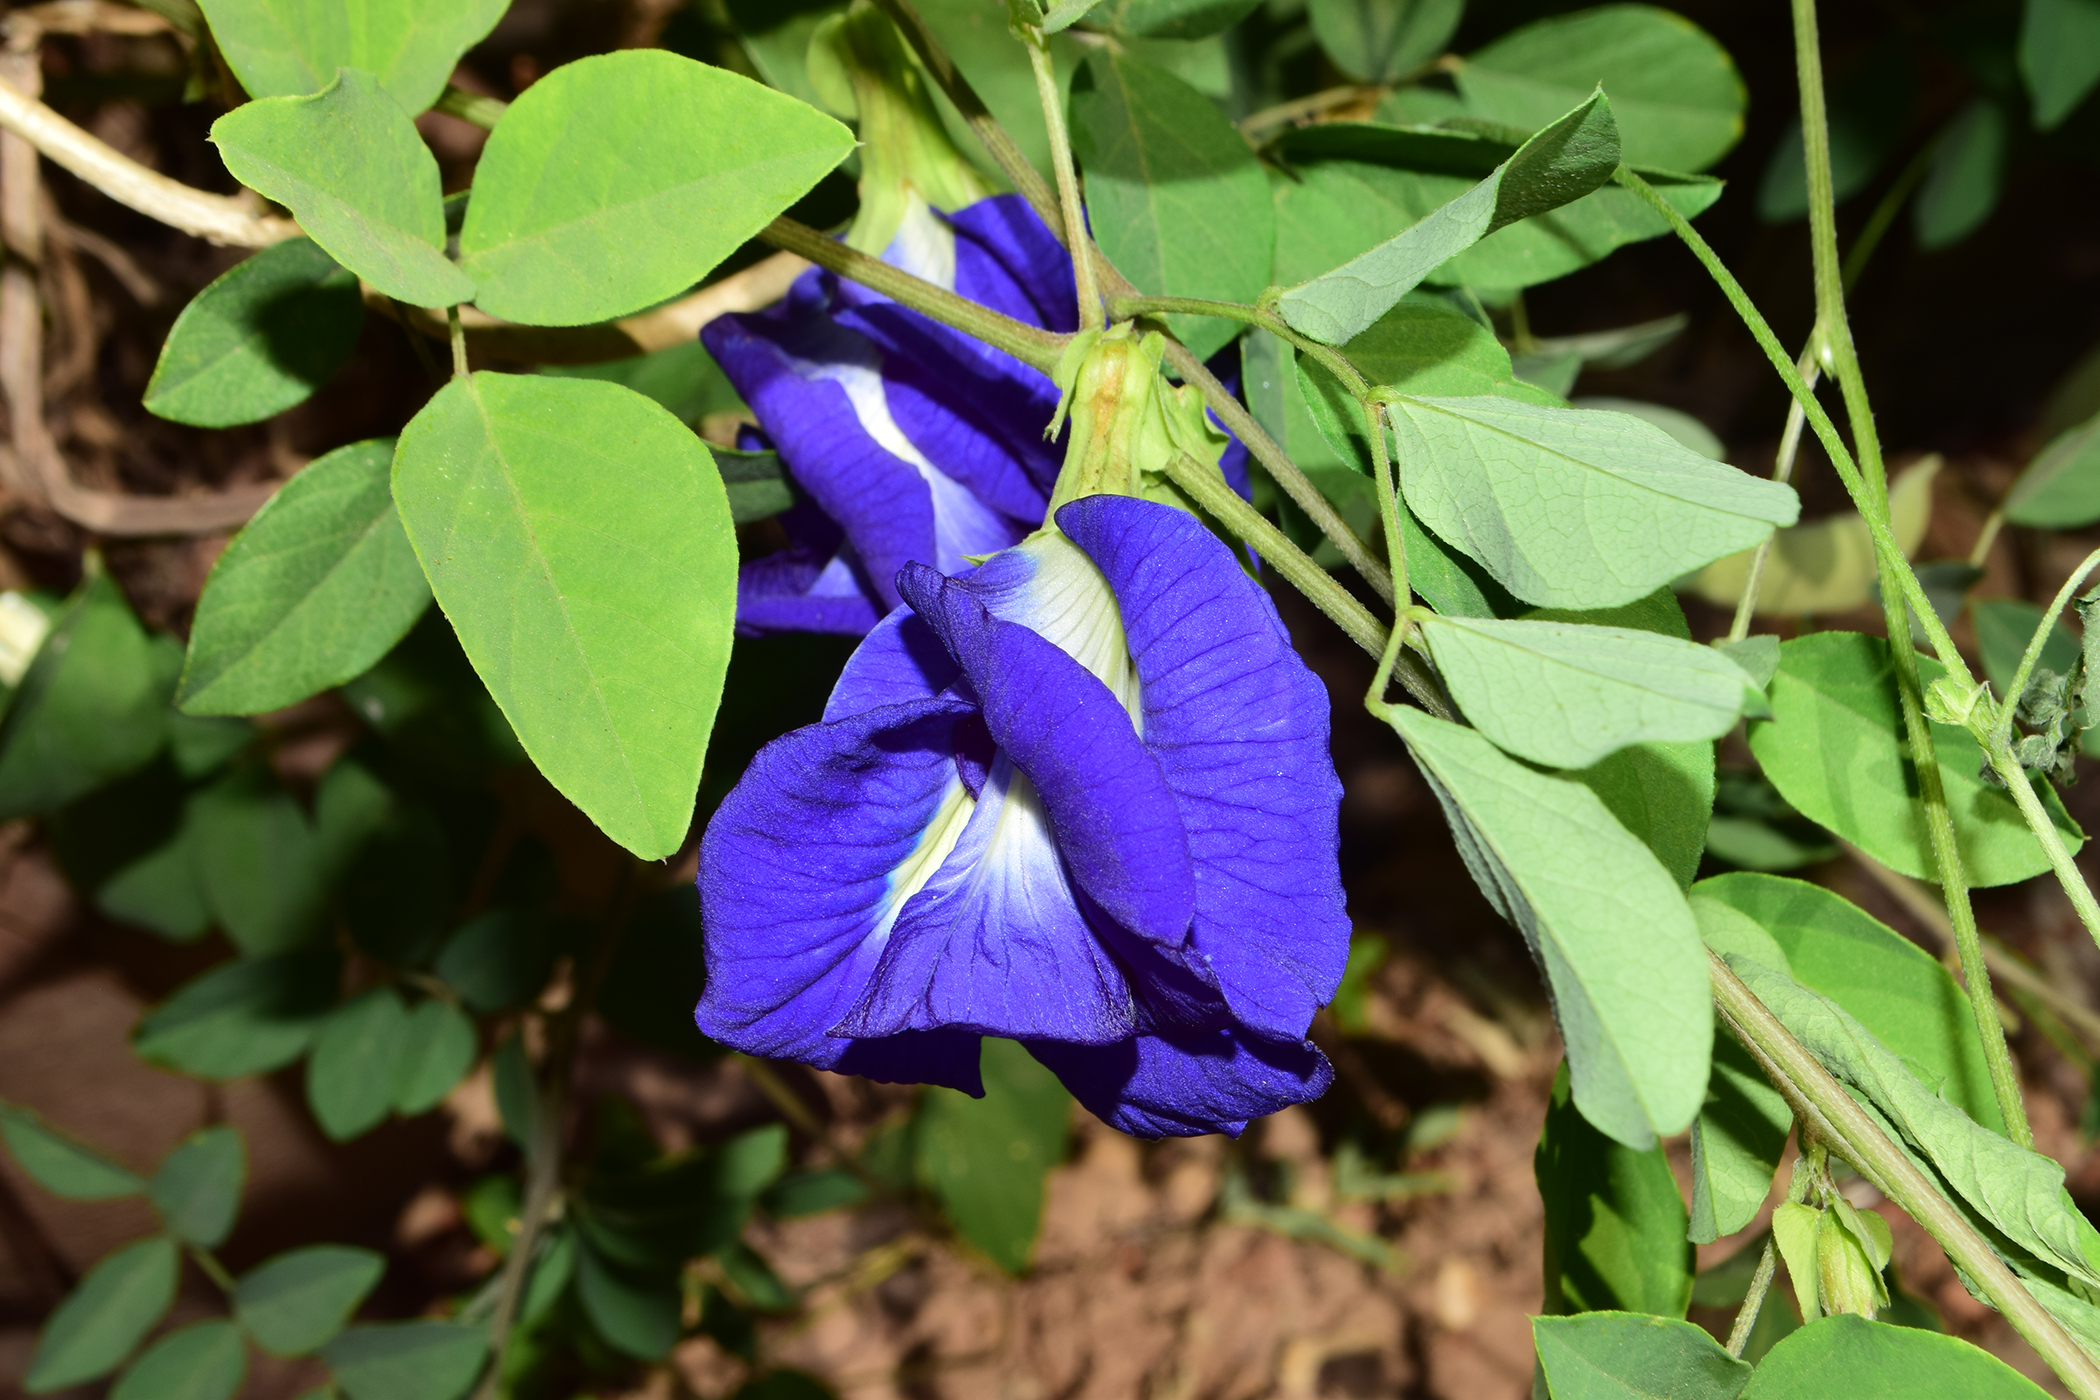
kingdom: Plantae
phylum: Tracheophyta
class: Magnoliopsida
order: Fabales
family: Fabaceae
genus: Clitoria
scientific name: Clitoria ternatea
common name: Asian pigeonwings
